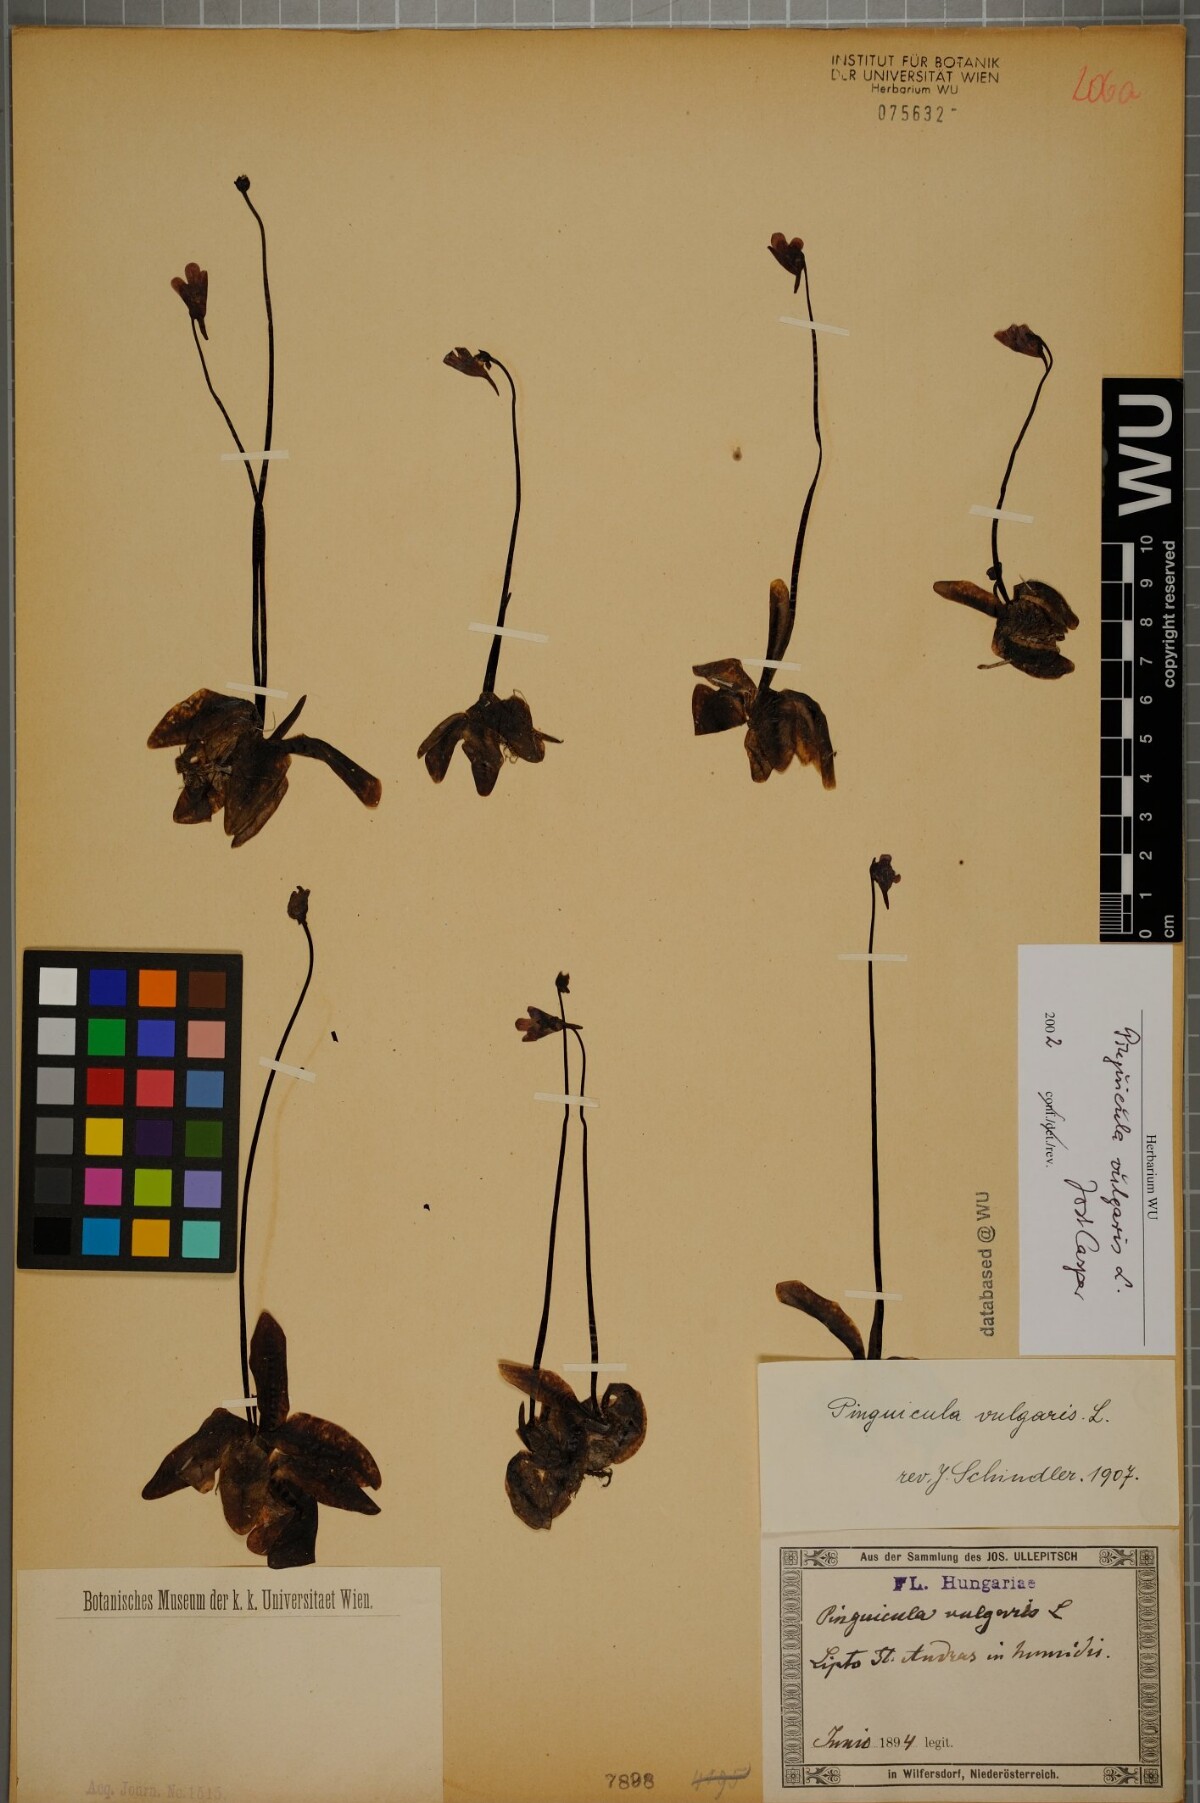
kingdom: Plantae
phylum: Tracheophyta
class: Magnoliopsida
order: Lamiales
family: Lentibulariaceae
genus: Pinguicula
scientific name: Pinguicula vulgaris
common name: Common butterwort
